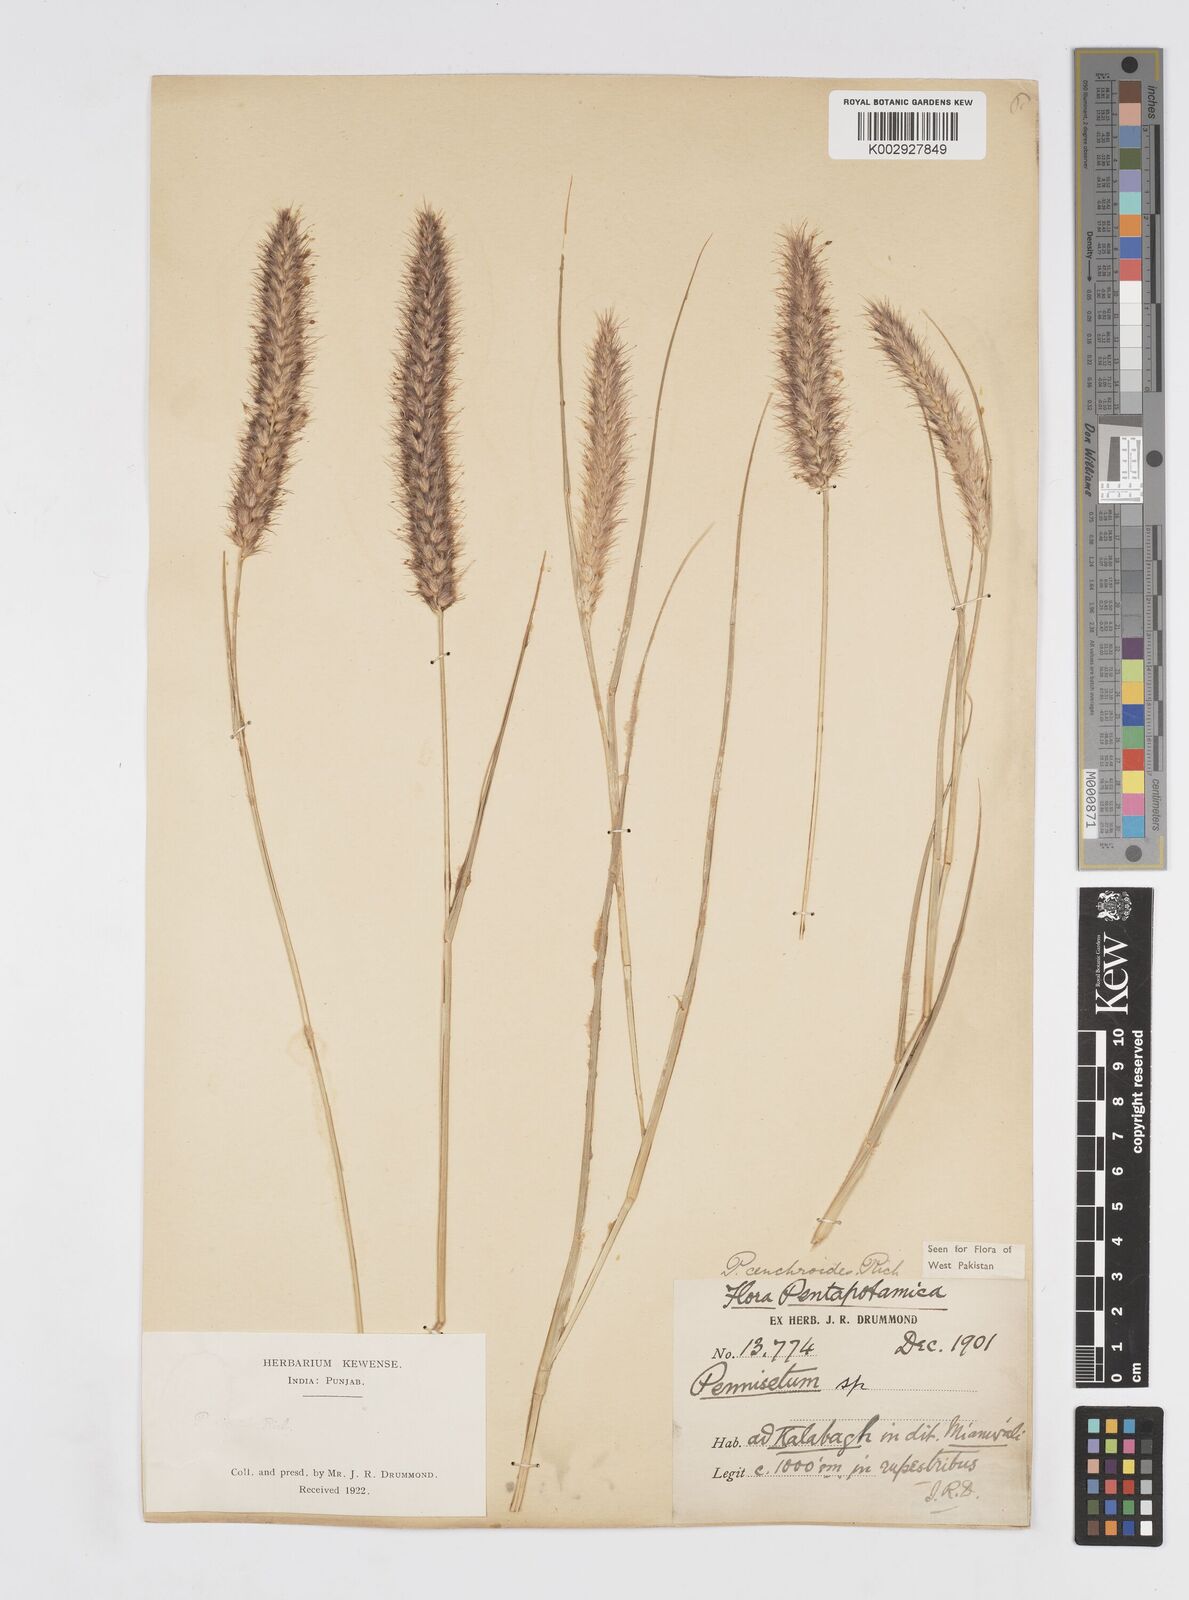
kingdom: Plantae
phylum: Tracheophyta
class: Liliopsida
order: Poales
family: Poaceae
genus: Cenchrus
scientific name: Cenchrus ciliaris
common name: Buffelgrass
